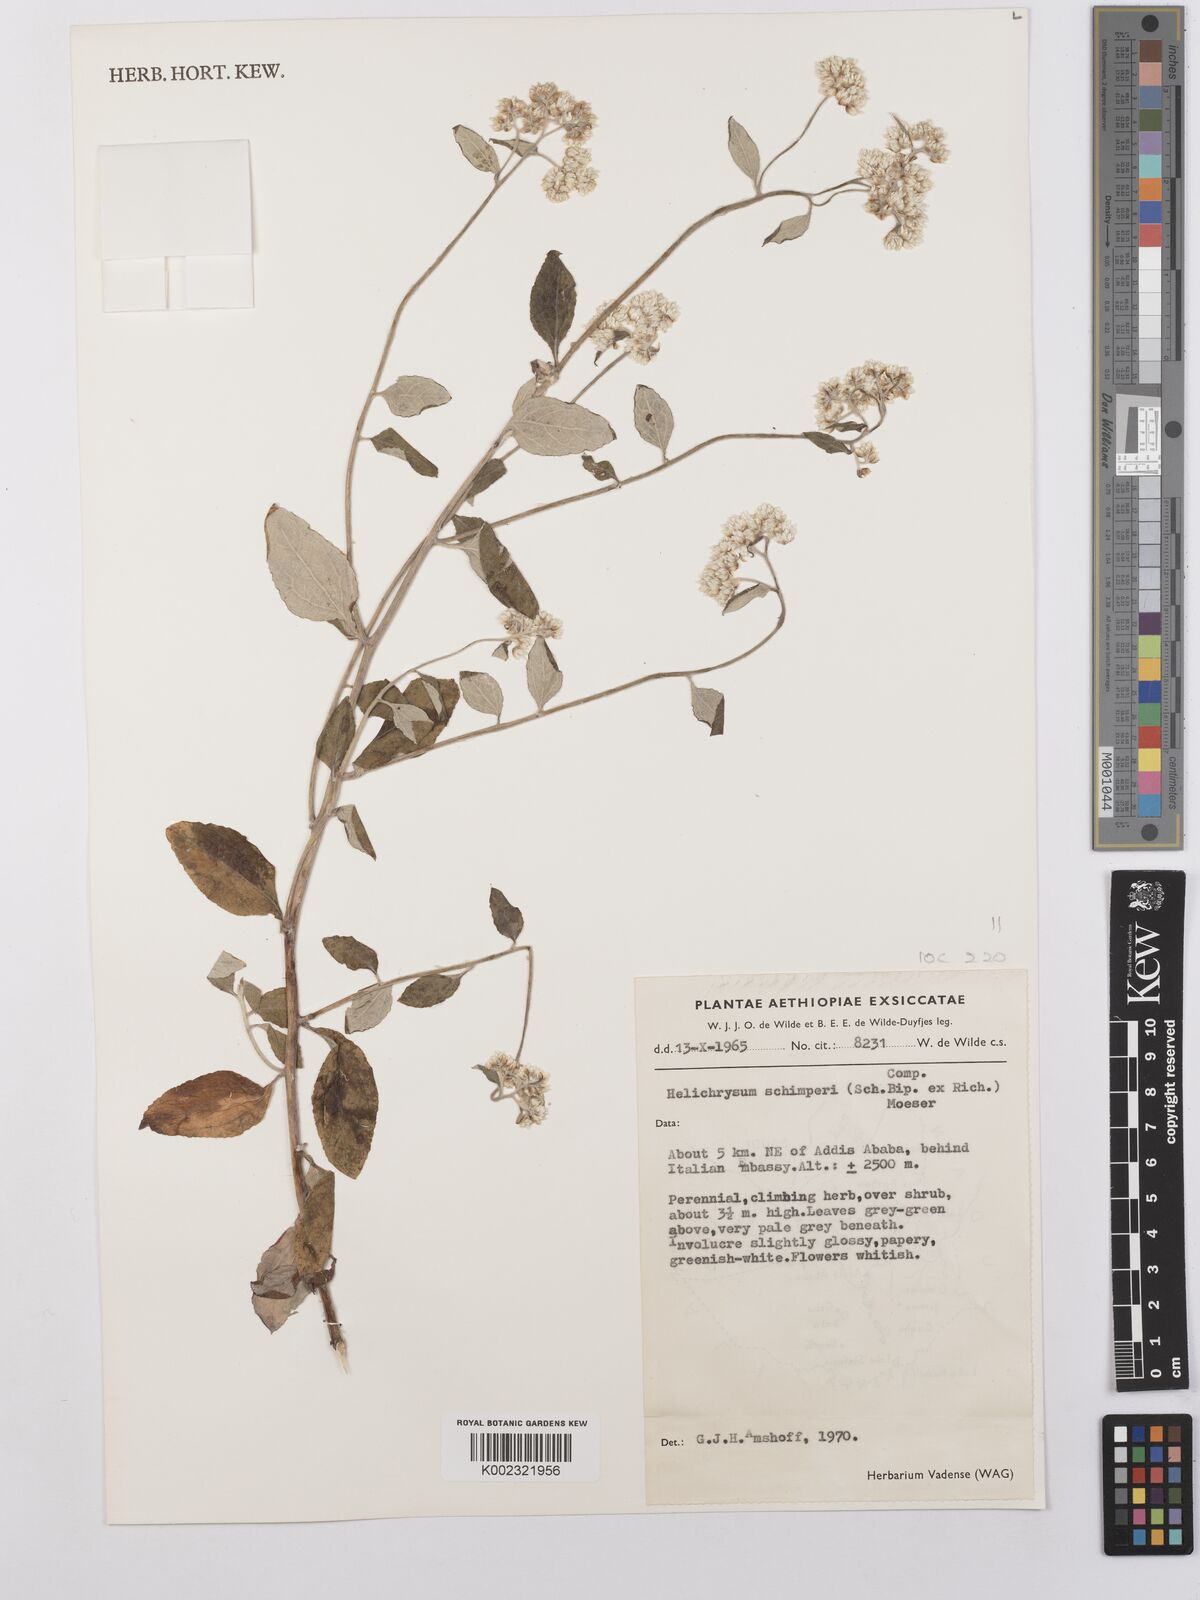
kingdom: Plantae
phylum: Tracheophyta
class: Magnoliopsida
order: Asterales
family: Asteraceae
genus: Helichrysum
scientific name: Helichrysum schimperi
